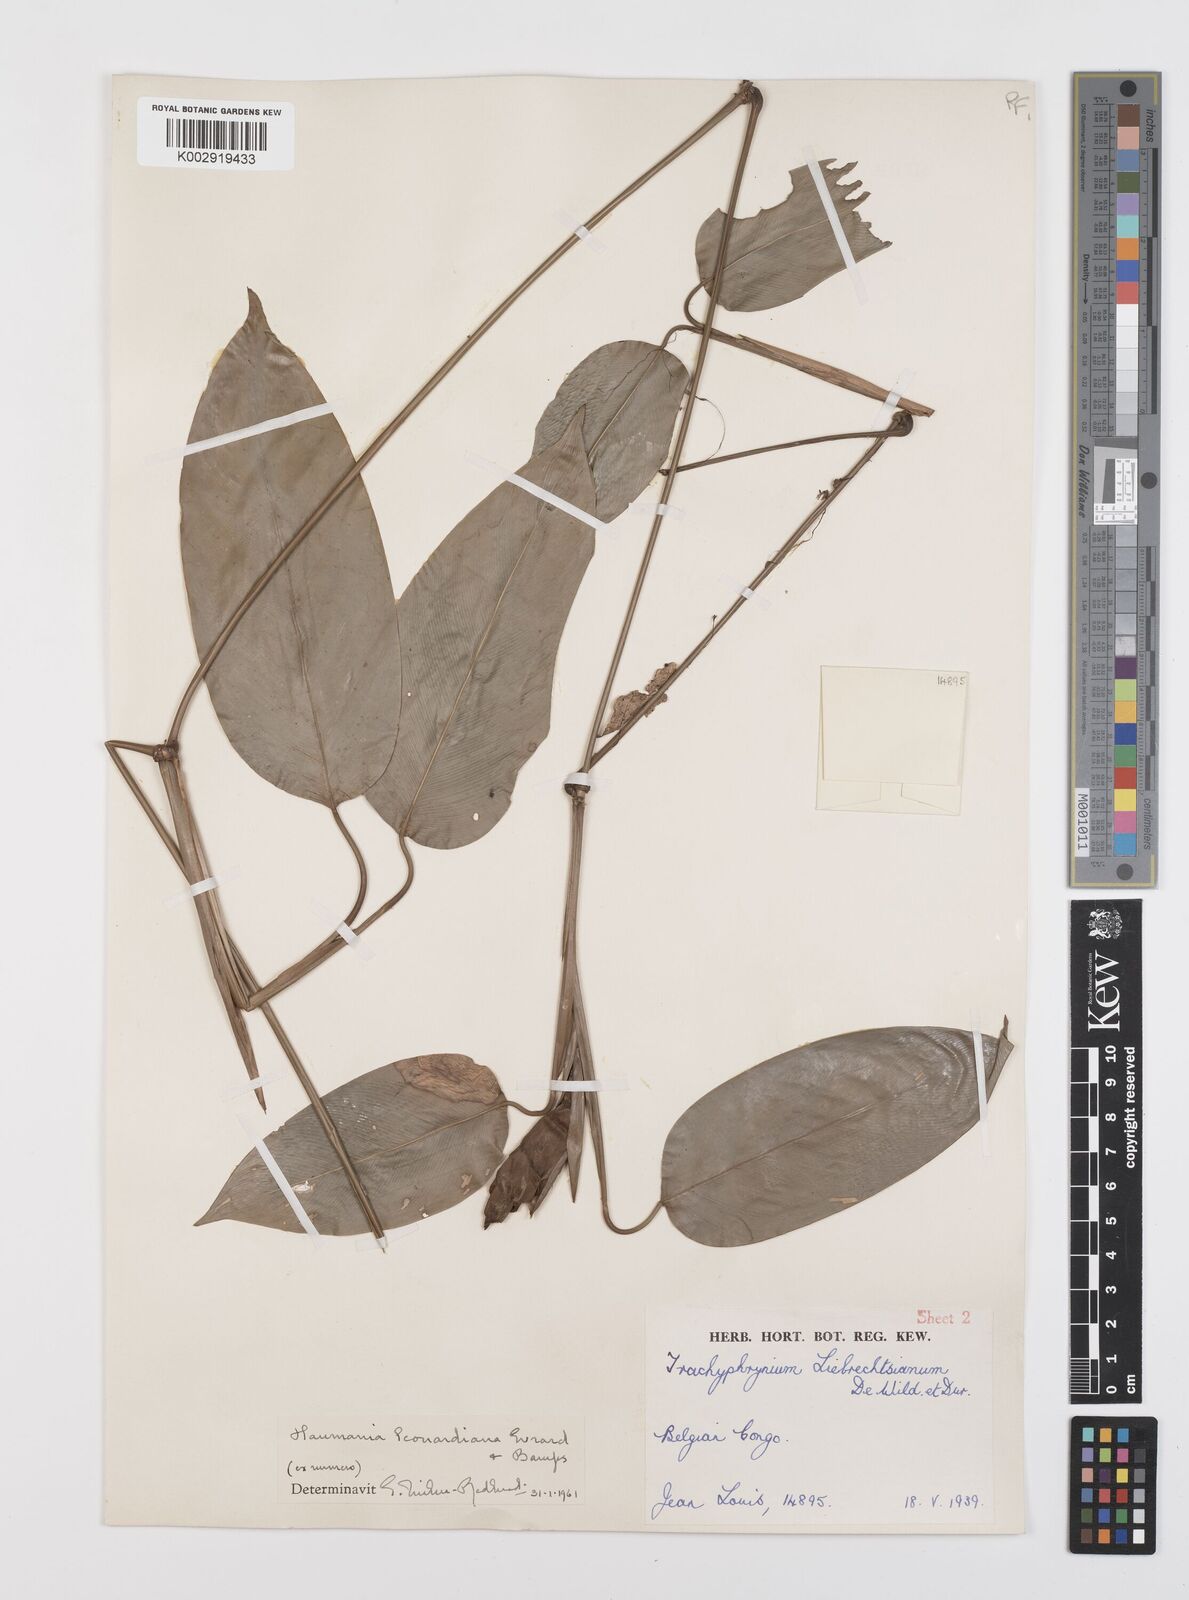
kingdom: Plantae
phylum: Tracheophyta
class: Liliopsida
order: Zingiberales
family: Marantaceae
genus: Haumania
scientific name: Haumania leonardiana
